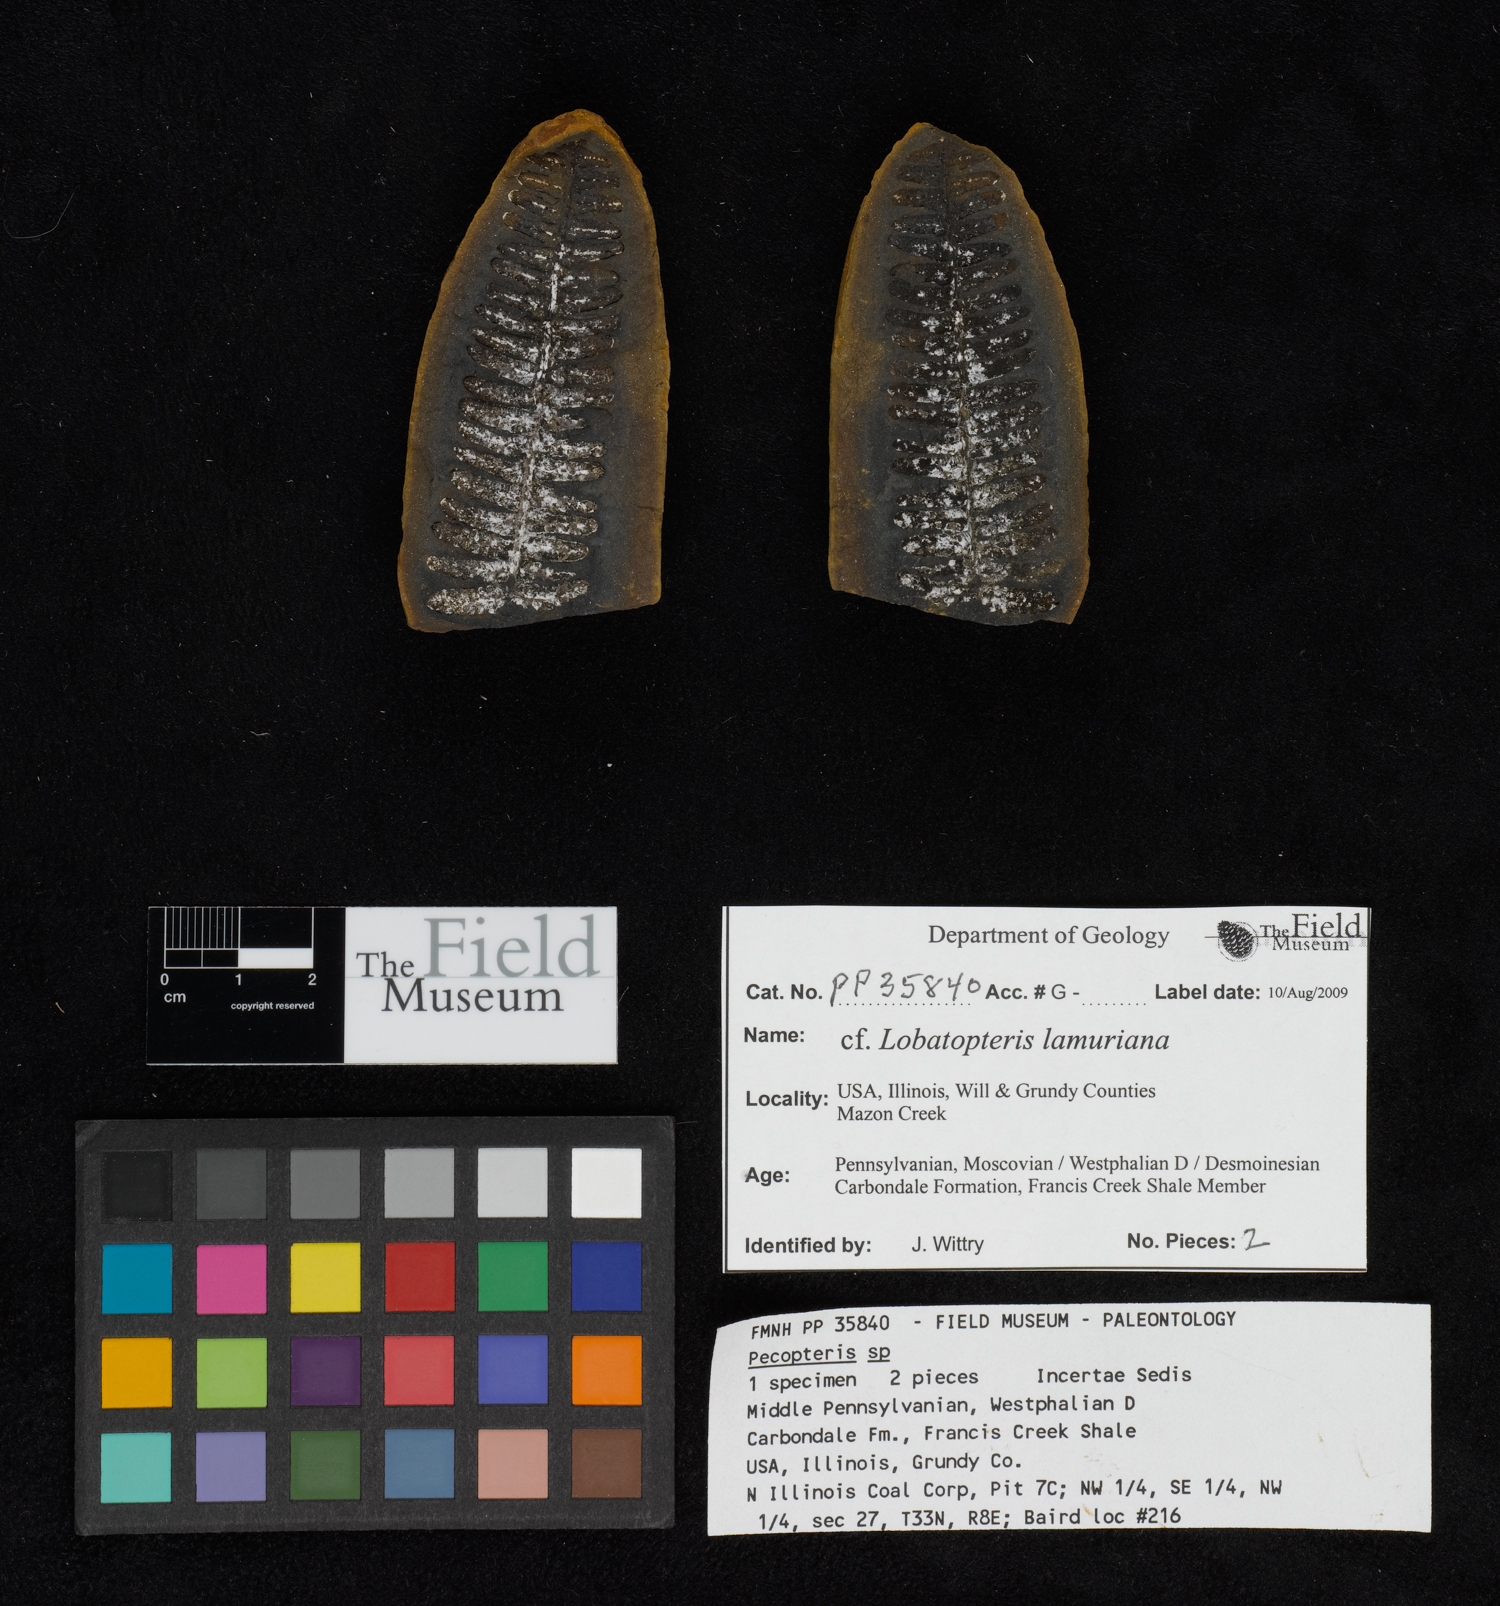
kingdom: Plantae
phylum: Tracheophyta
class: Polypodiopsida
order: Marattiales
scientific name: Marattiales
